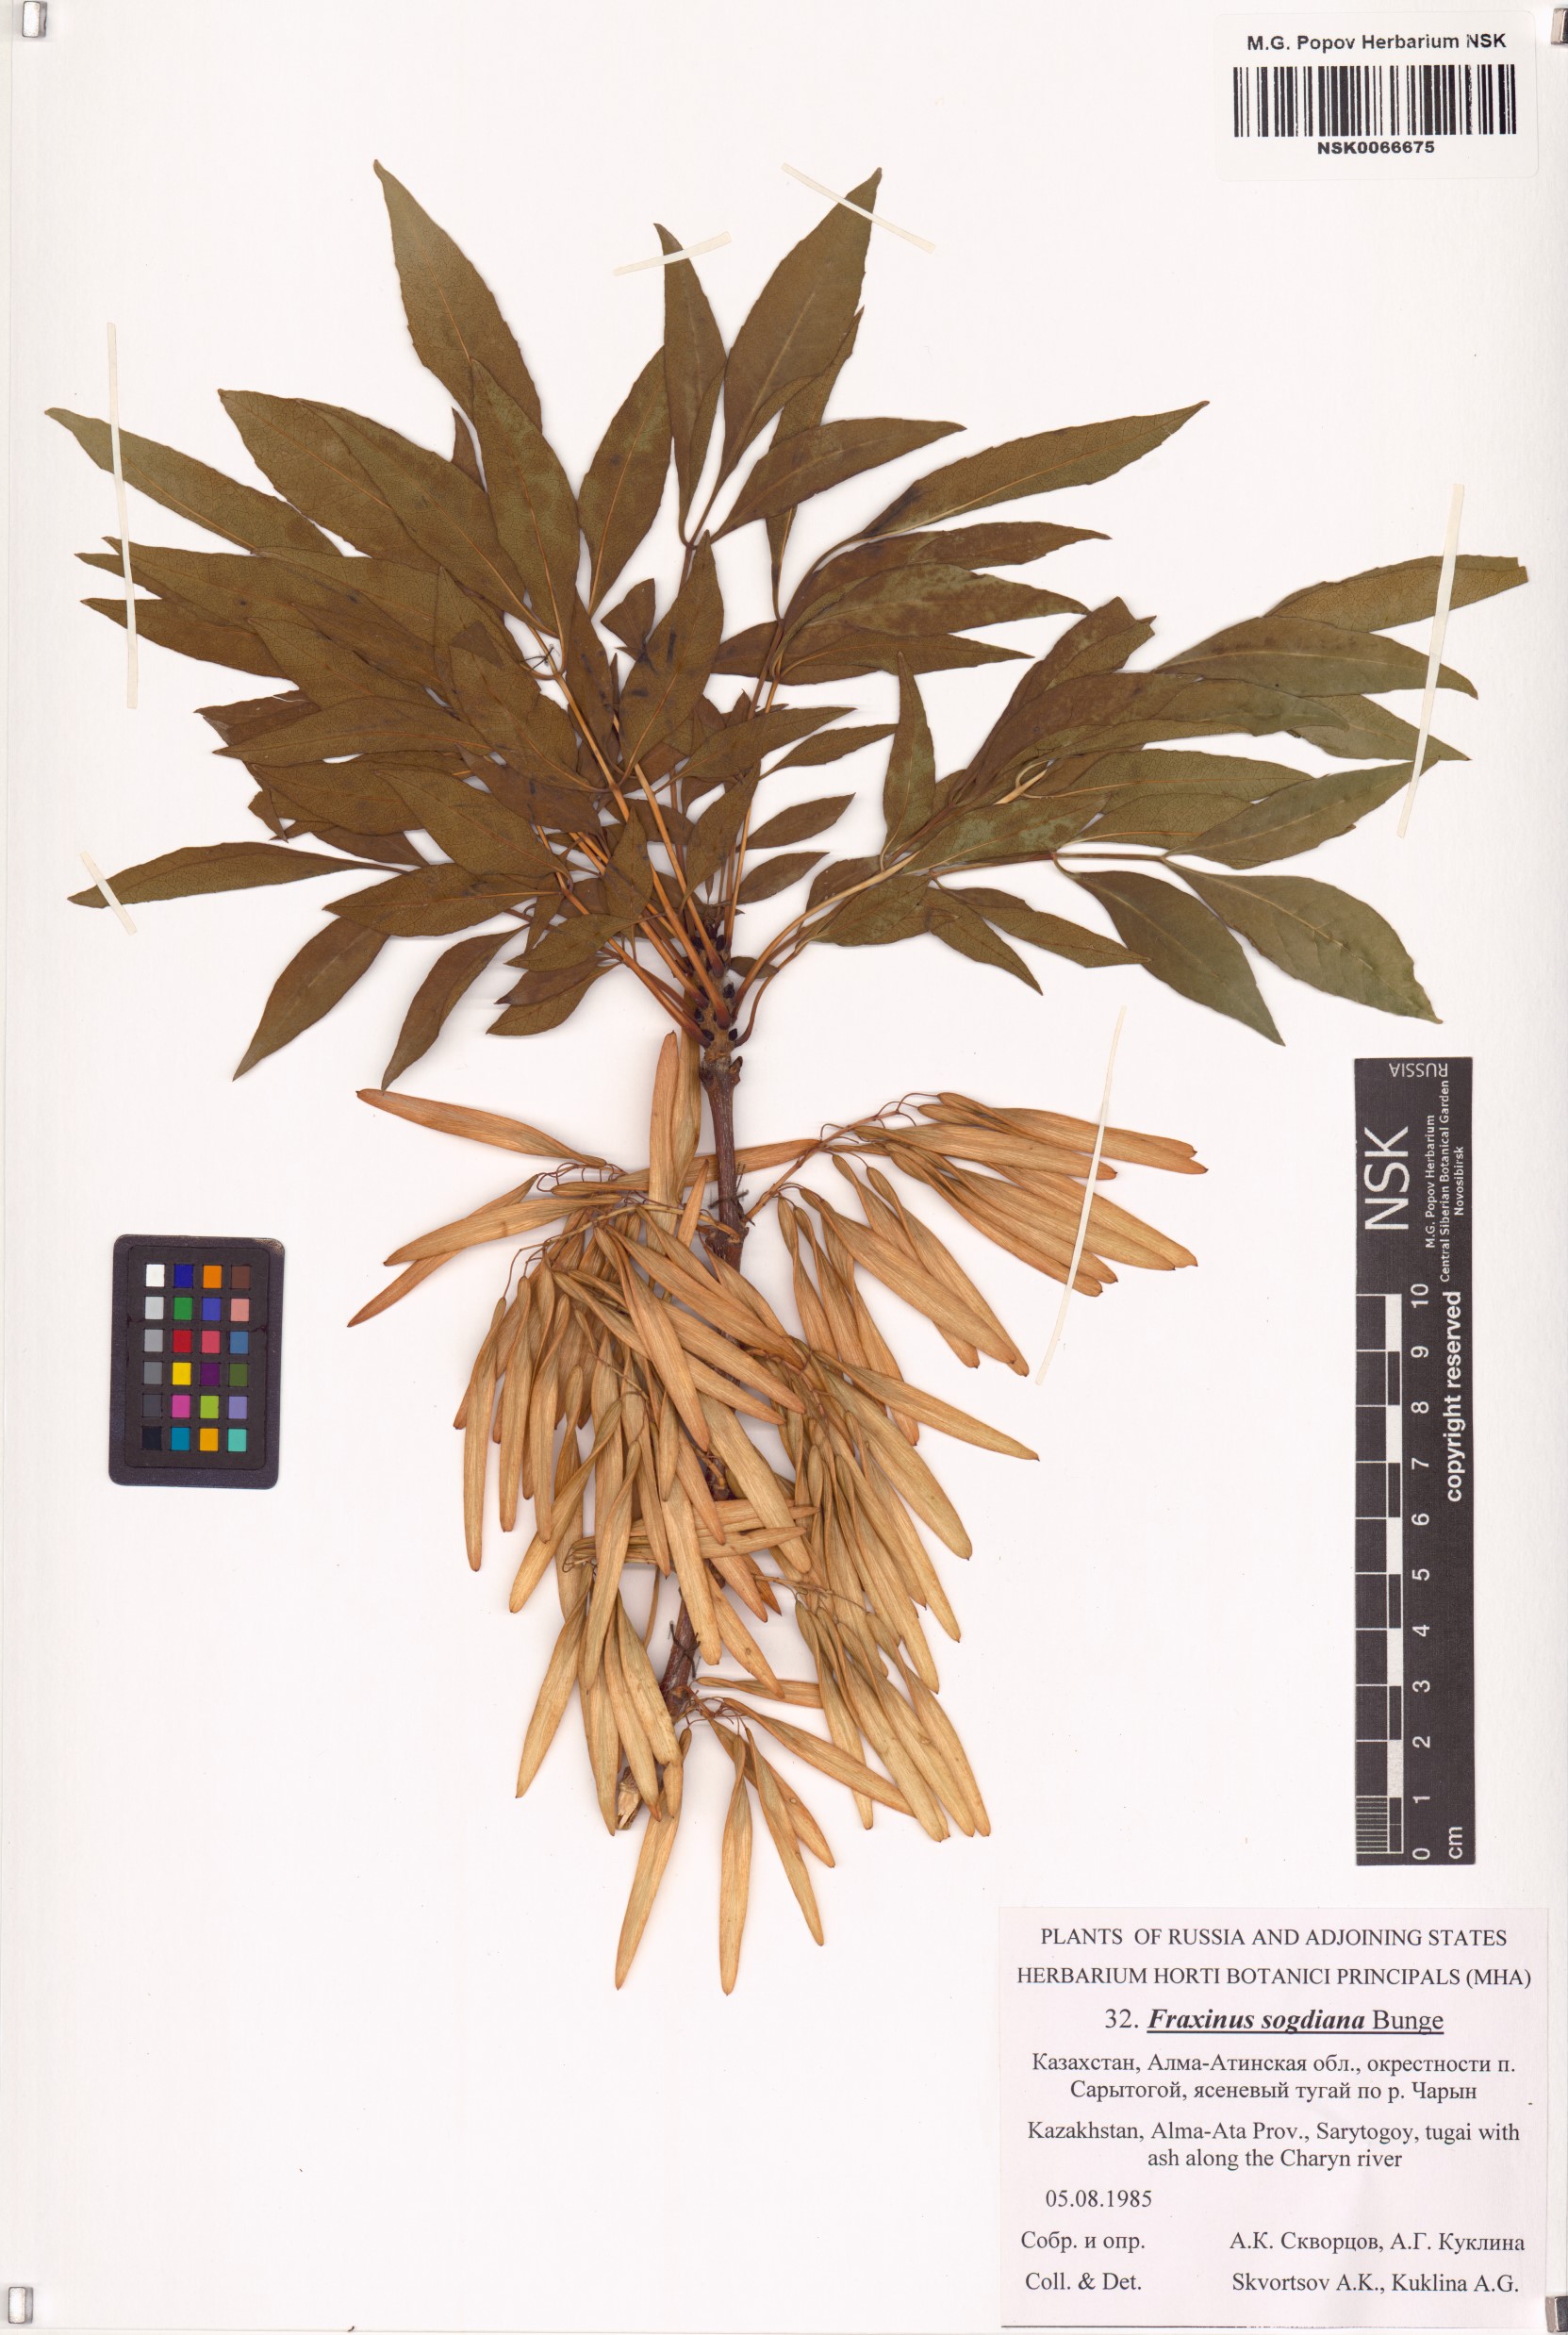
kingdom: Plantae
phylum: Tracheophyta
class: Magnoliopsida
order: Lamiales
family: Oleaceae
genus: Fraxinus
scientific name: Fraxinus sogdiana
